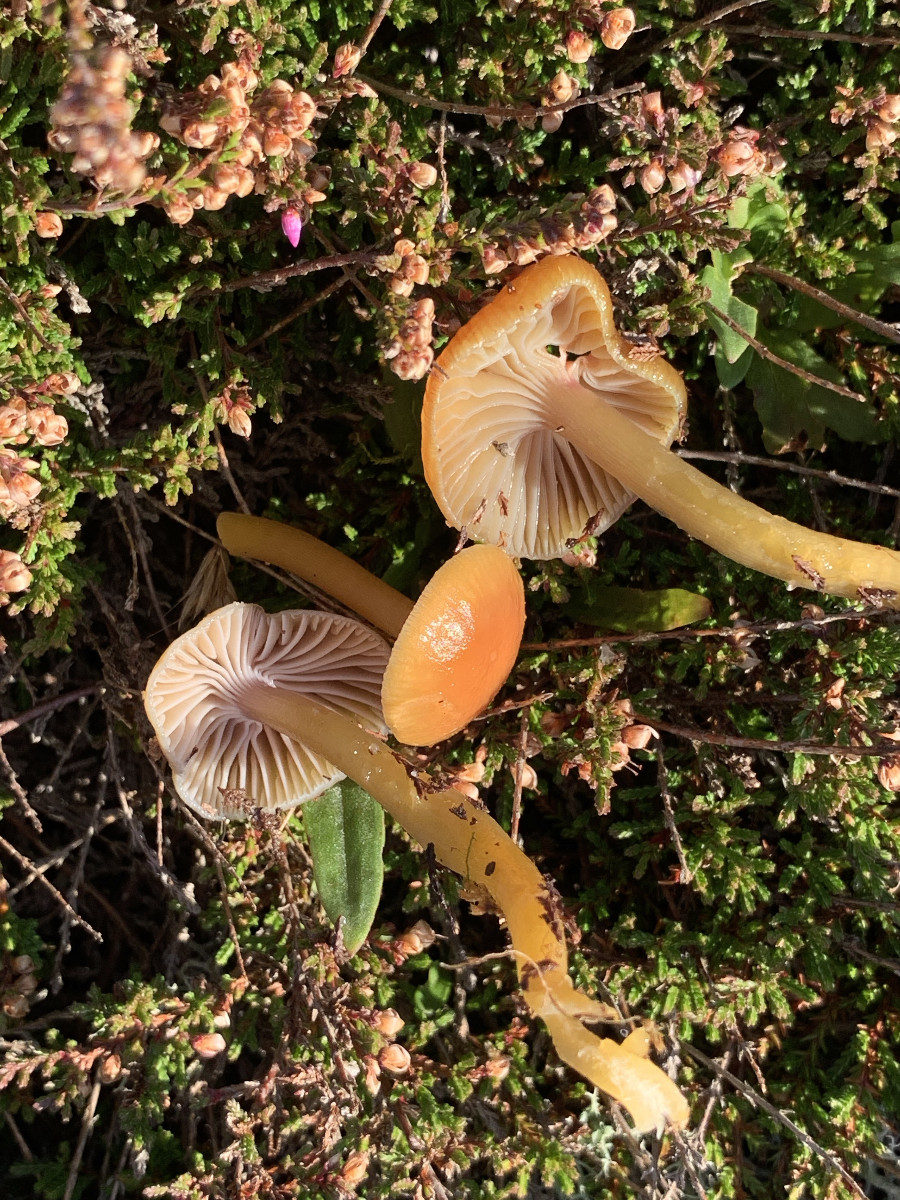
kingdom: Fungi
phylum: Basidiomycota
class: Agaricomycetes
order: Agaricales
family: Hygrophoraceae
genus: Gliophorus
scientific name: Gliophorus laetus
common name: brusk-vokshat
